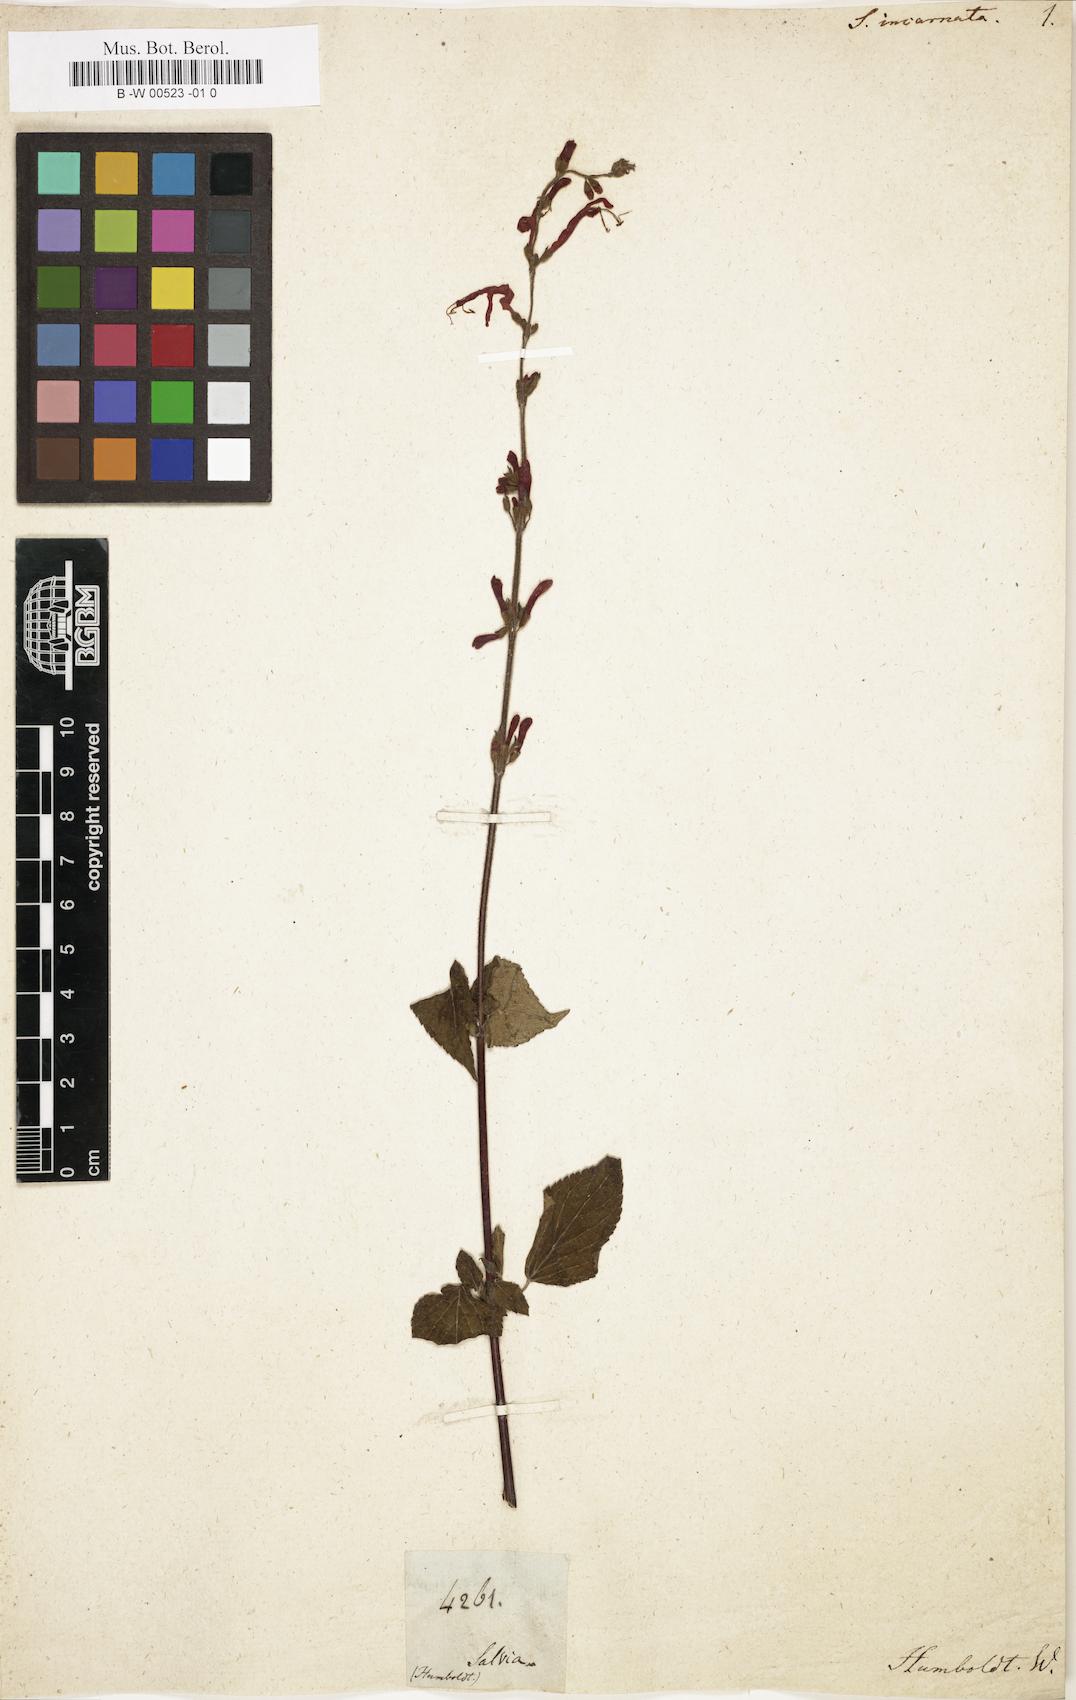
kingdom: Plantae
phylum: Tracheophyta
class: Magnoliopsida
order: Lamiales
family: Lamiaceae
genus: Salvia
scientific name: Salvia
